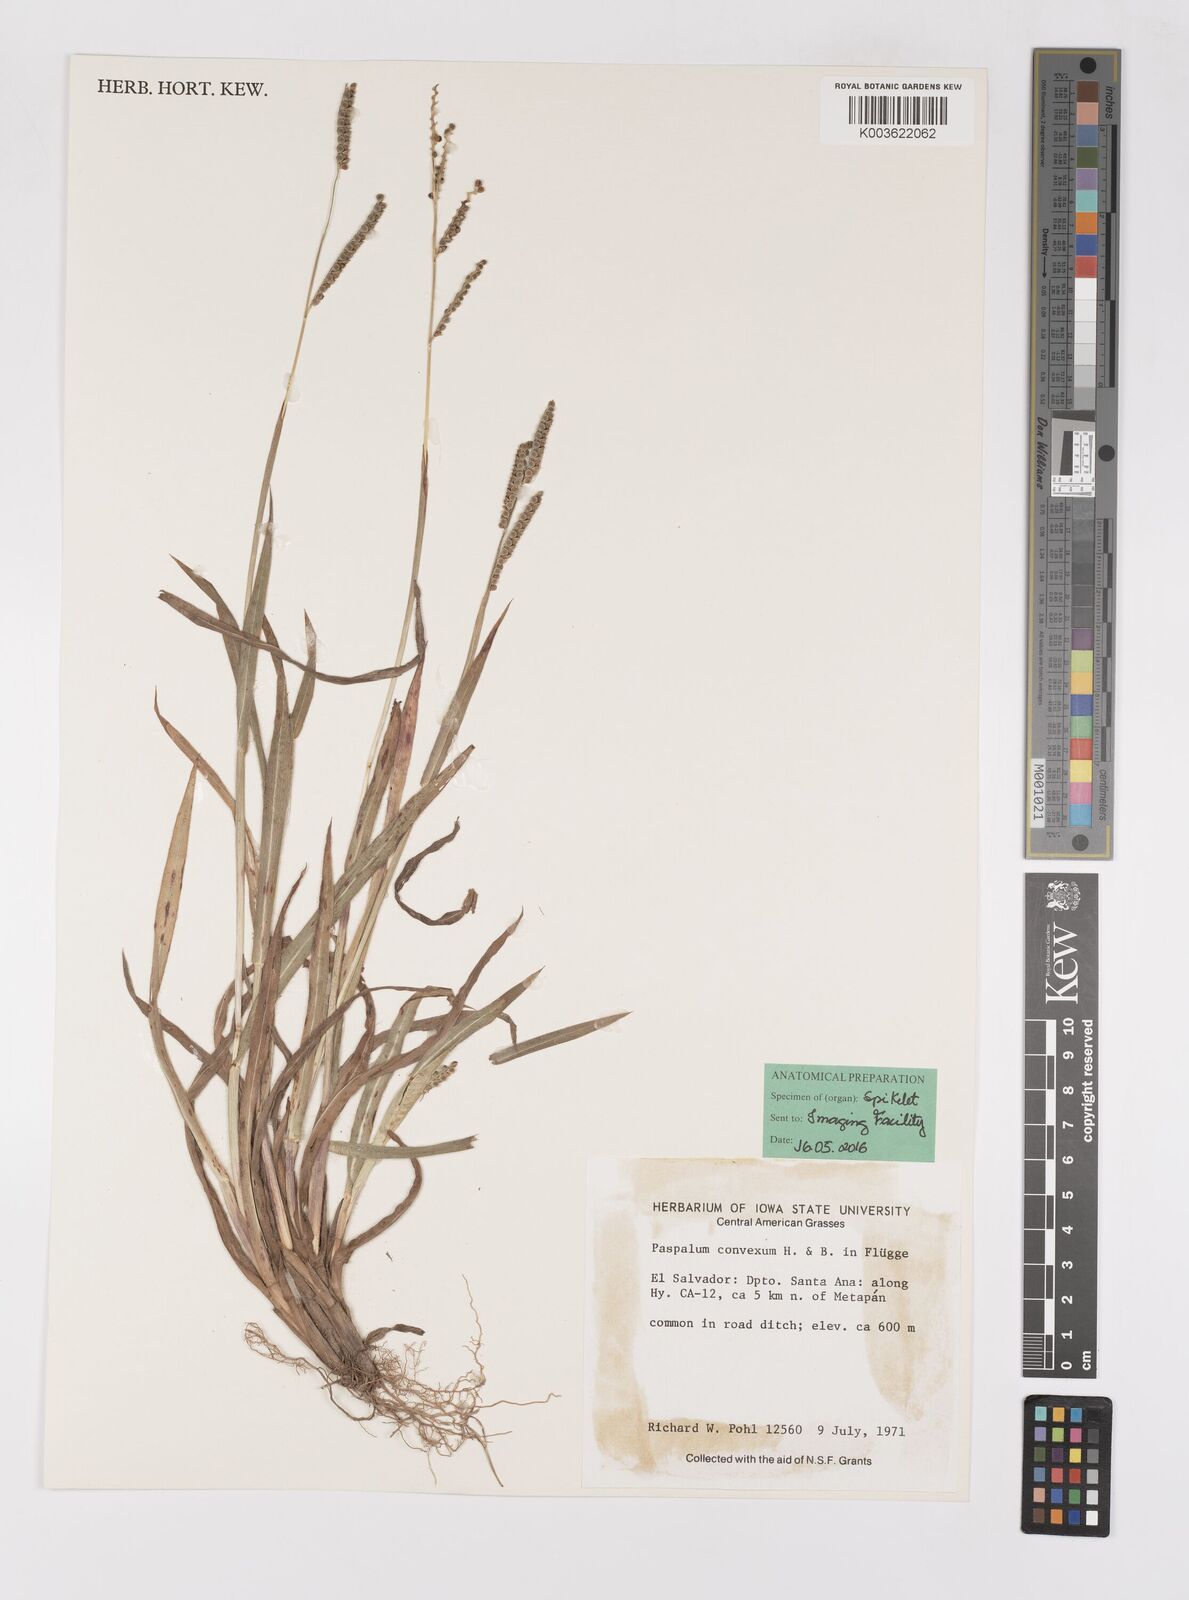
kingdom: Plantae
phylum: Tracheophyta
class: Liliopsida
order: Poales
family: Poaceae
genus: Paspalum
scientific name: Paspalum convexum
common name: Latin american crowngrass
